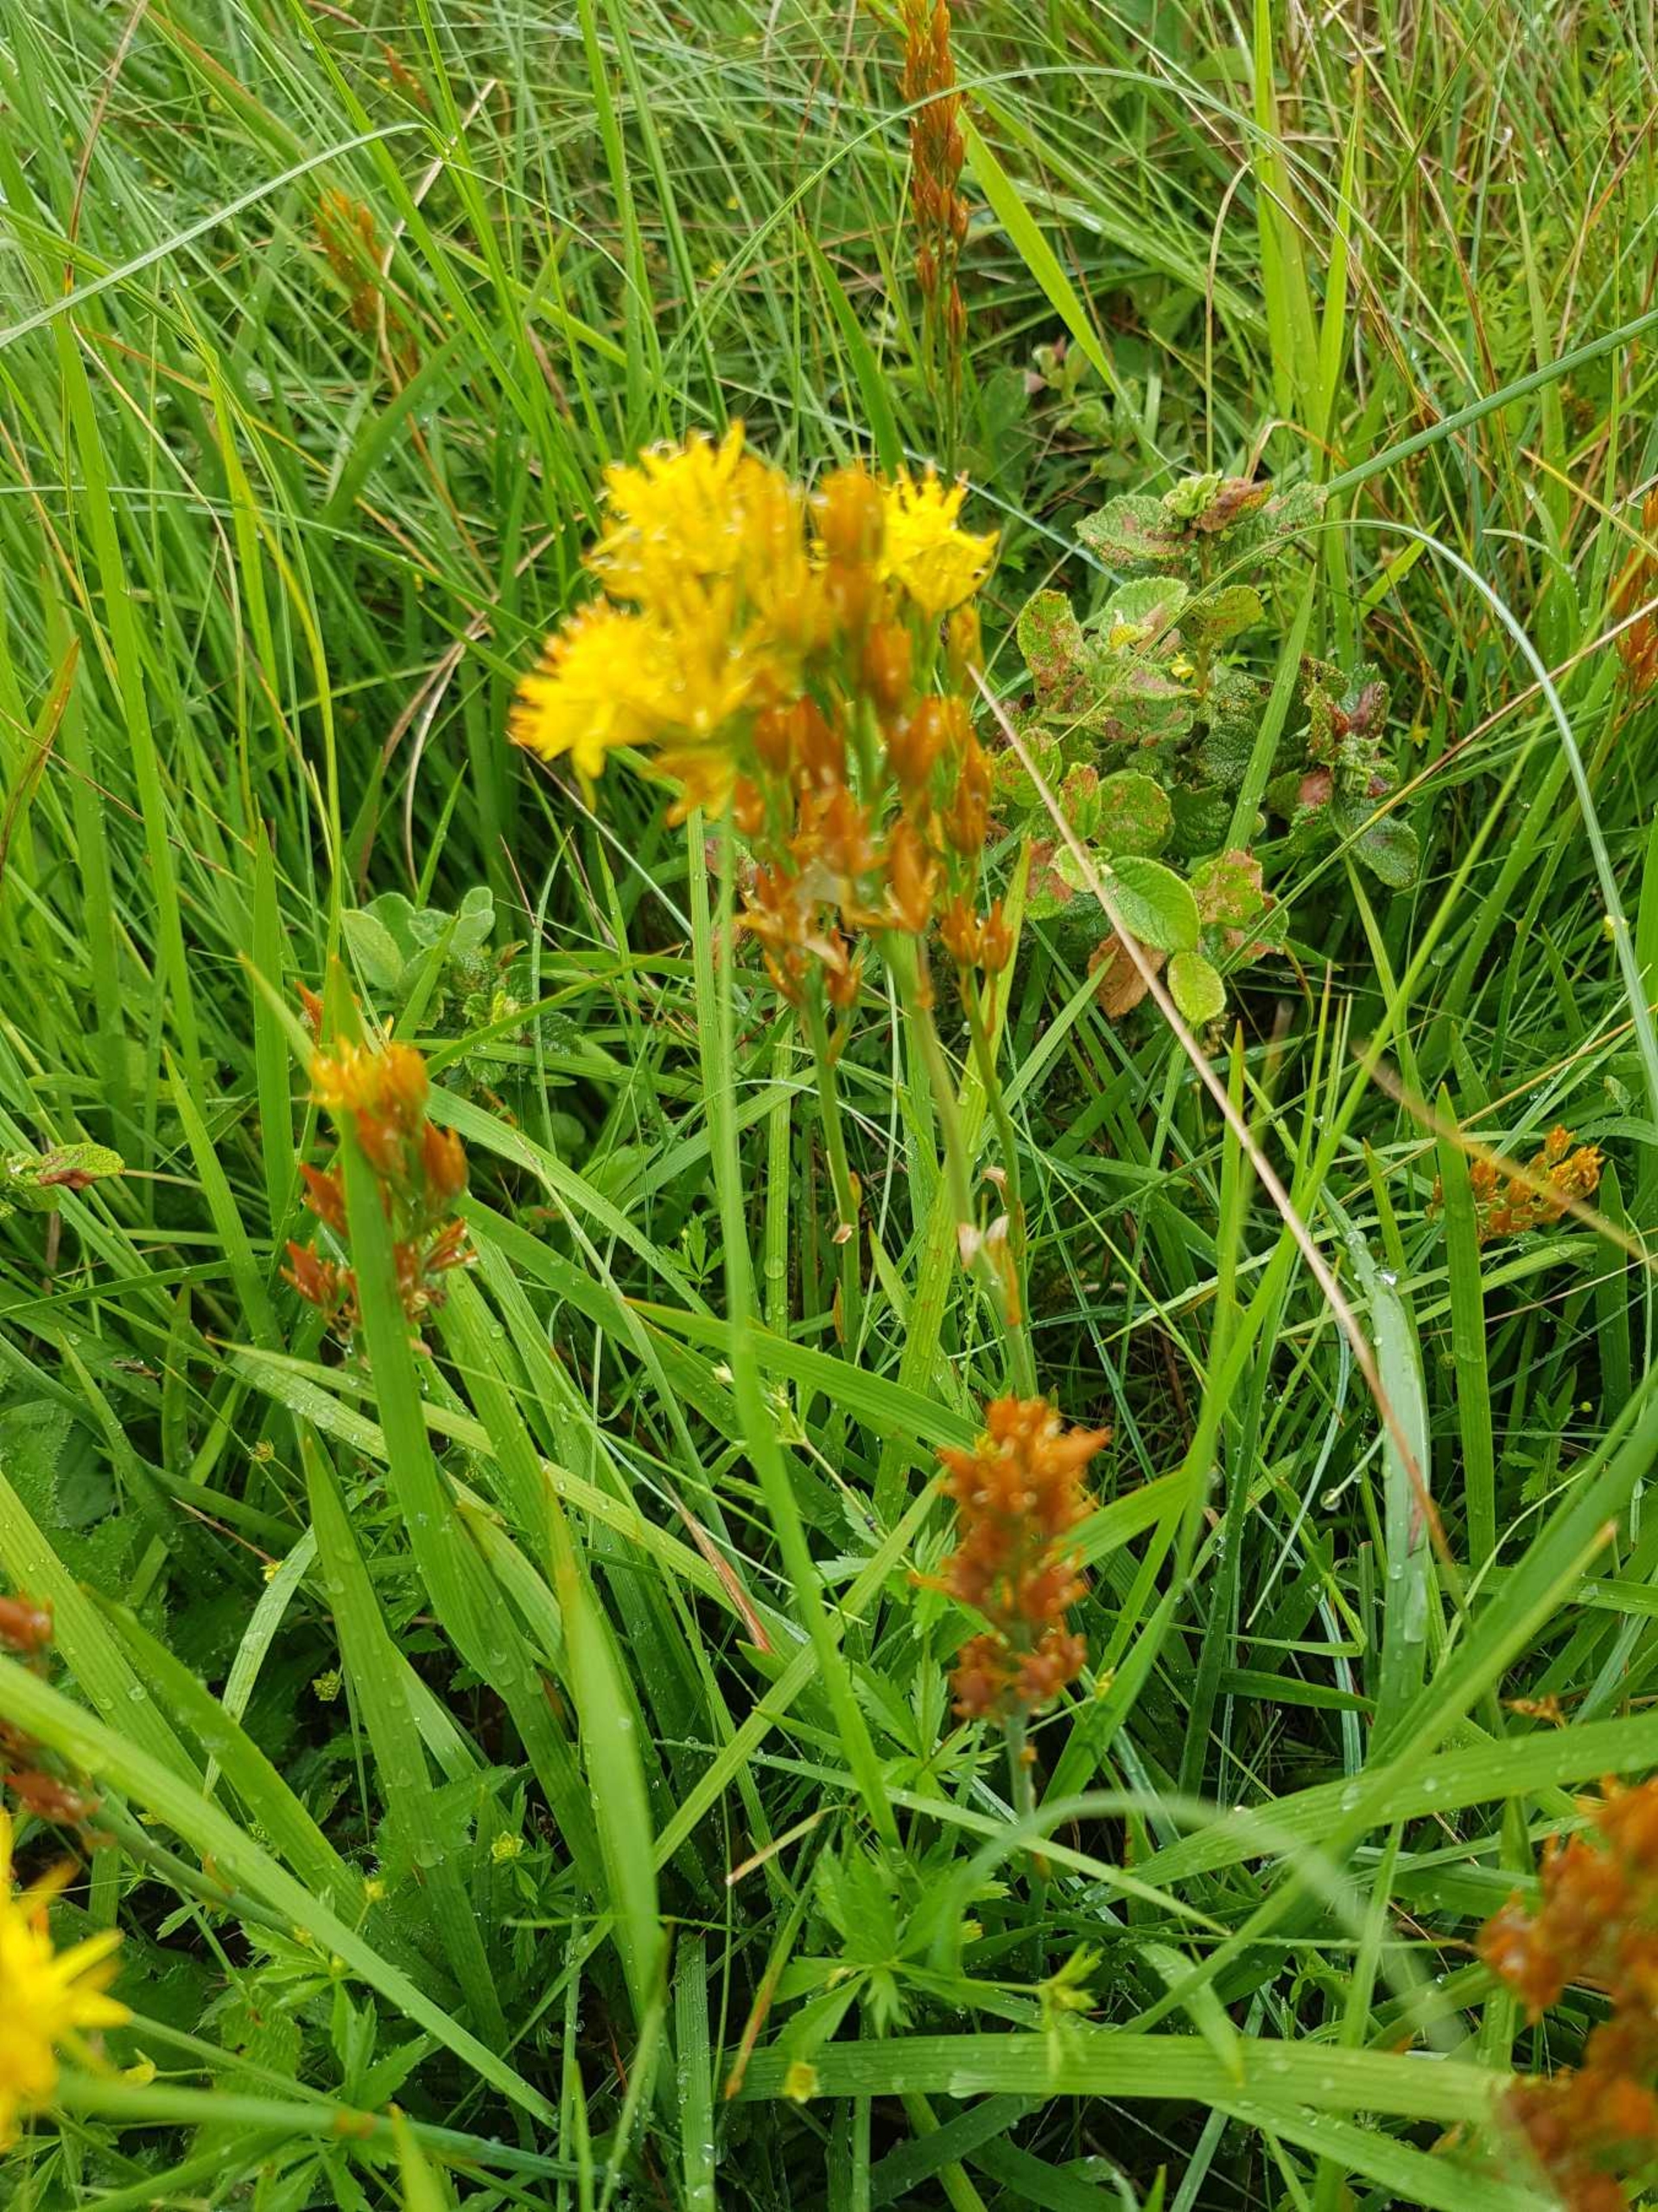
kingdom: Plantae
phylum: Tracheophyta
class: Liliopsida
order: Dioscoreales
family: Nartheciaceae
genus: Narthecium
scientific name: Narthecium ossifragum
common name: Benbræk
